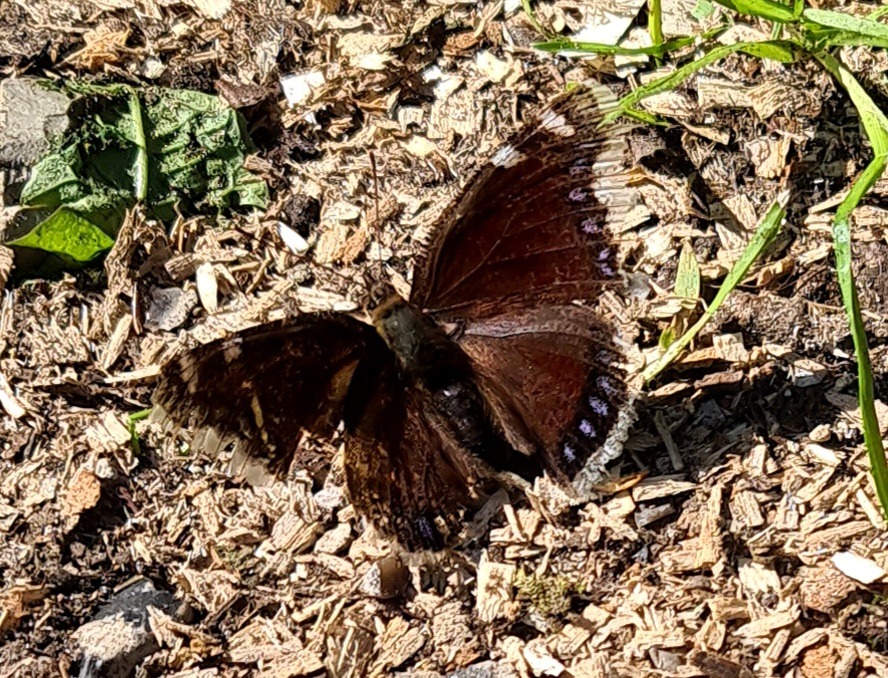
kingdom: Animalia
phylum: Arthropoda
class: Insecta
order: Lepidoptera
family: Nymphalidae
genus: Nymphalis
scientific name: Nymphalis antiopa
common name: Sørgekåbe
